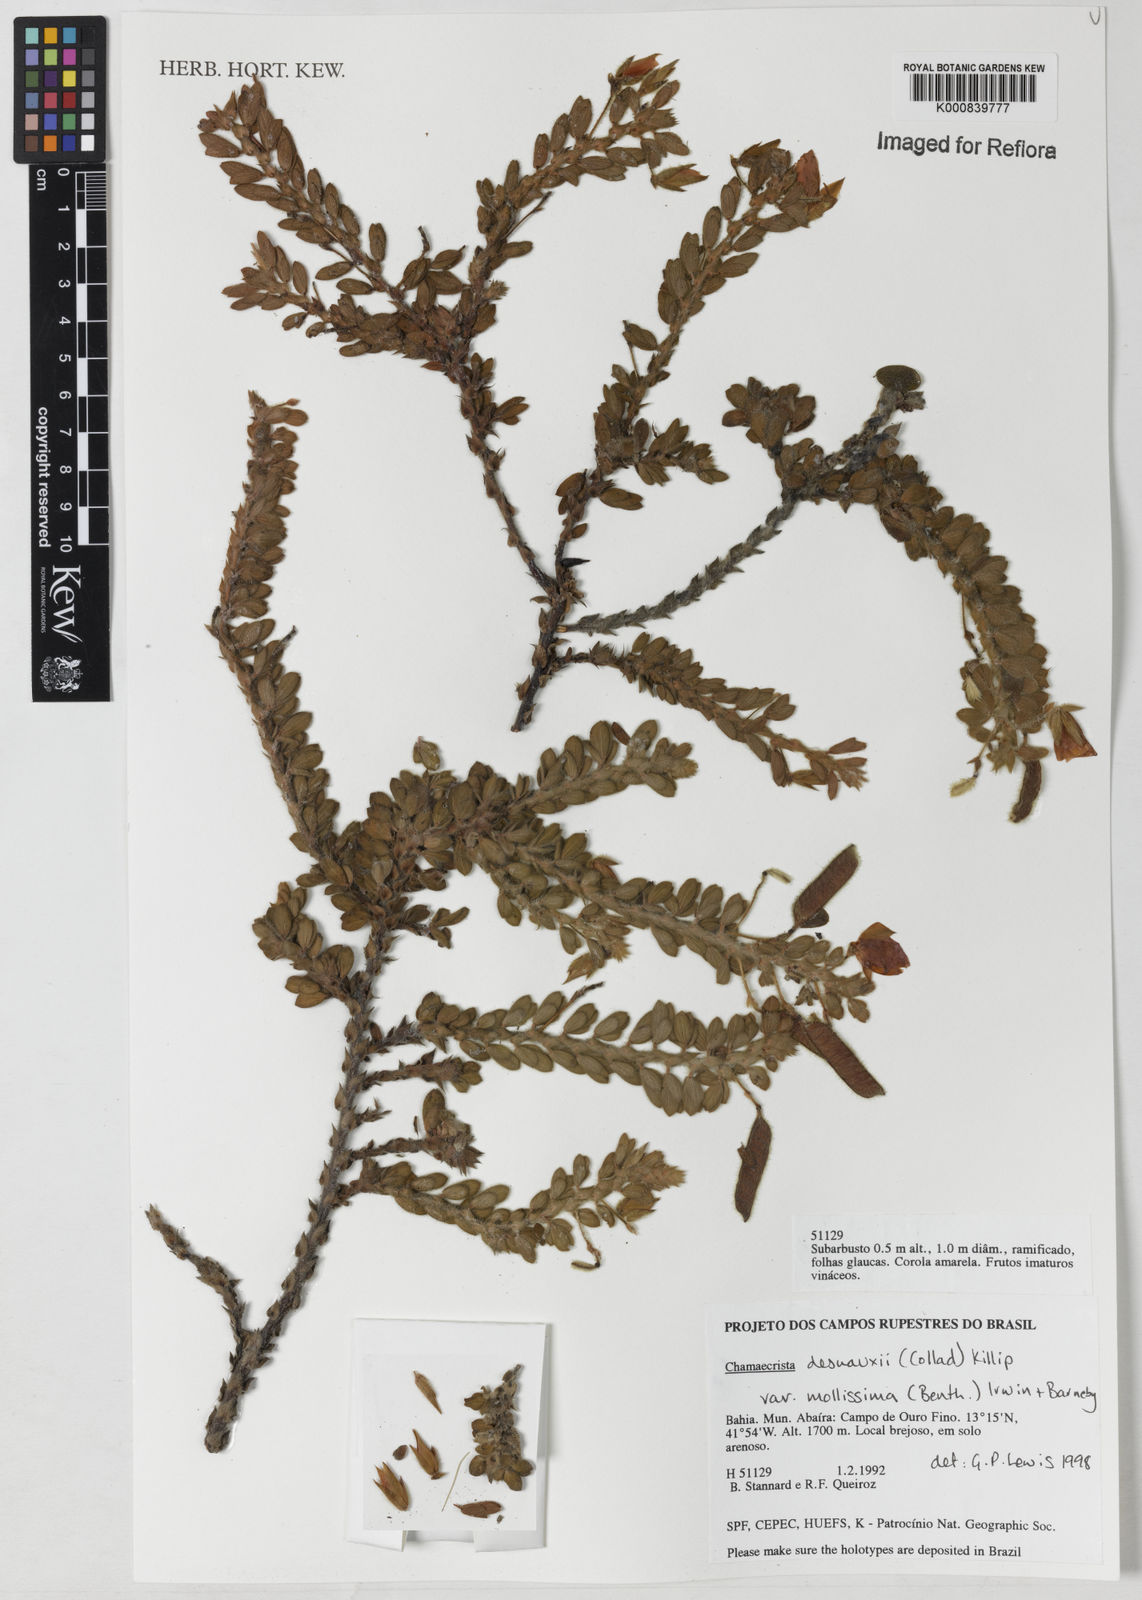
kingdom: Plantae
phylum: Tracheophyta
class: Magnoliopsida
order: Fabales
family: Fabaceae
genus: Chamaecrista
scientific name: Chamaecrista desvauxii
